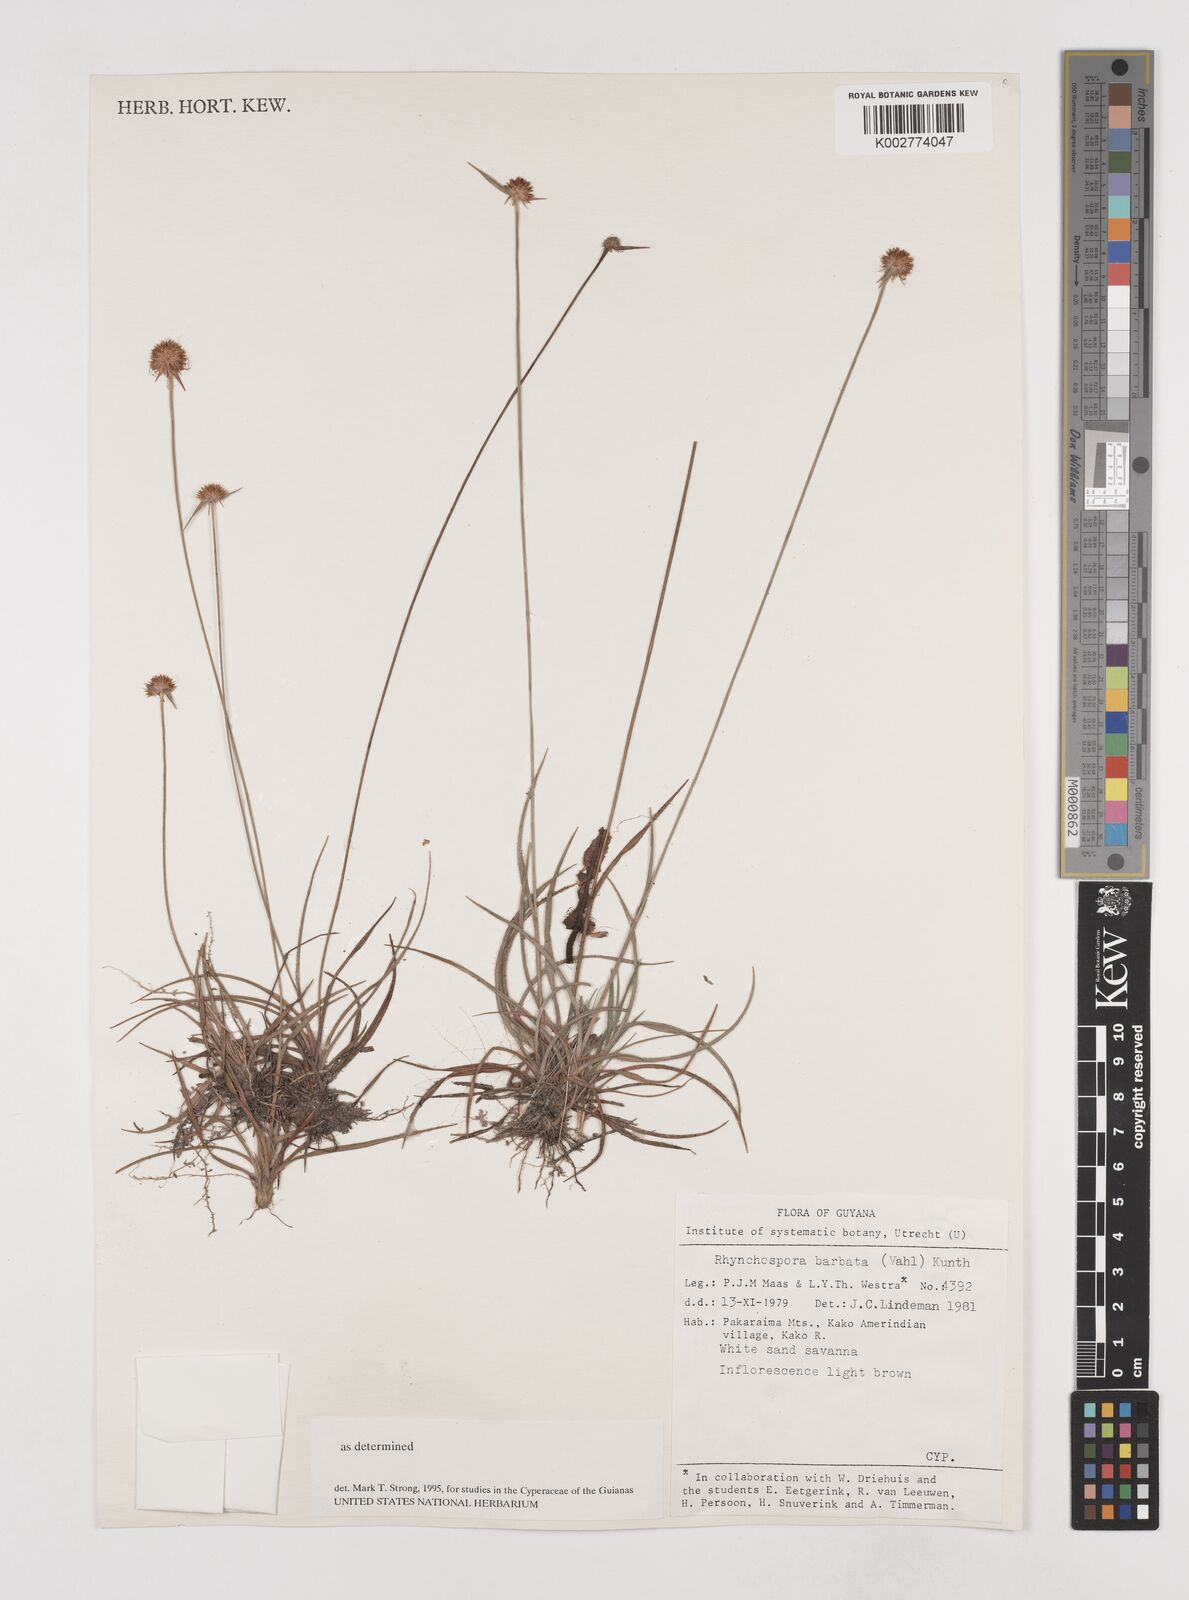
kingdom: Plantae
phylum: Tracheophyta
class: Liliopsida
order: Poales
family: Cyperaceae
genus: Rhynchospora
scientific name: Rhynchospora barbata
